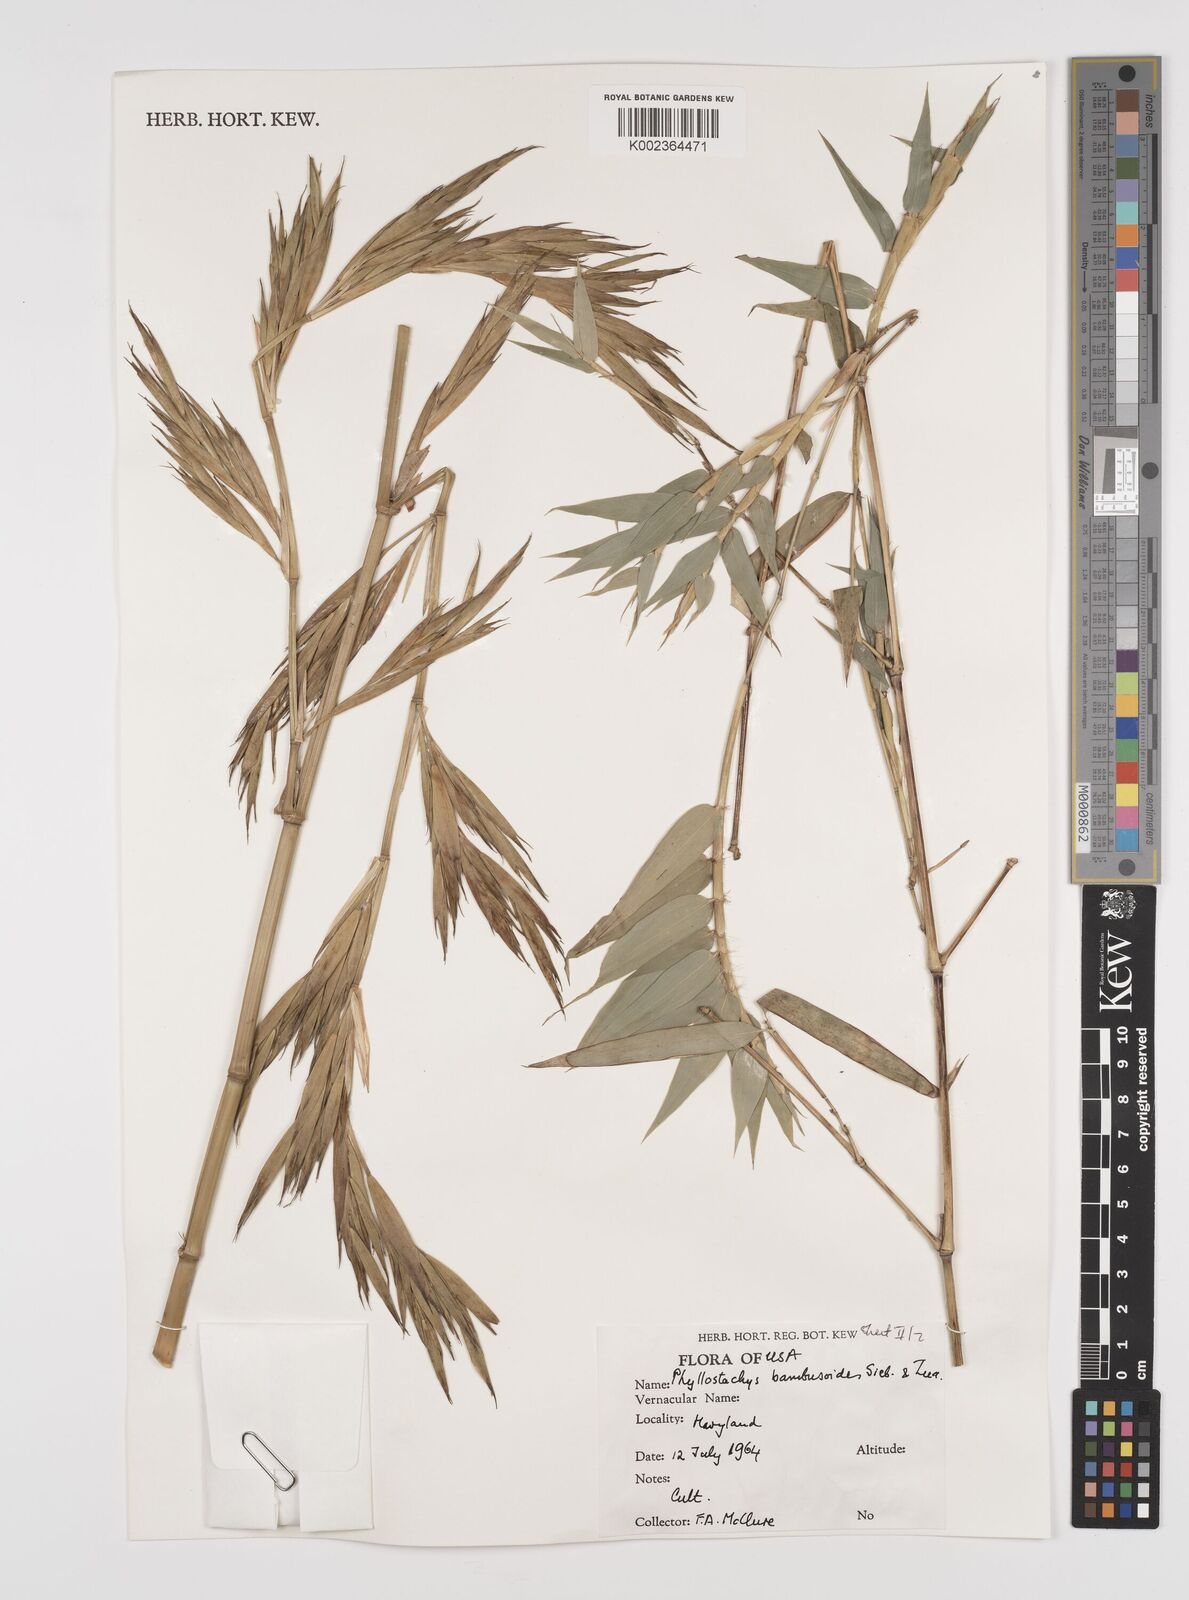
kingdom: Plantae
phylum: Tracheophyta
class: Liliopsida
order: Poales
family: Poaceae
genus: Phyllostachys
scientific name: Phyllostachys
